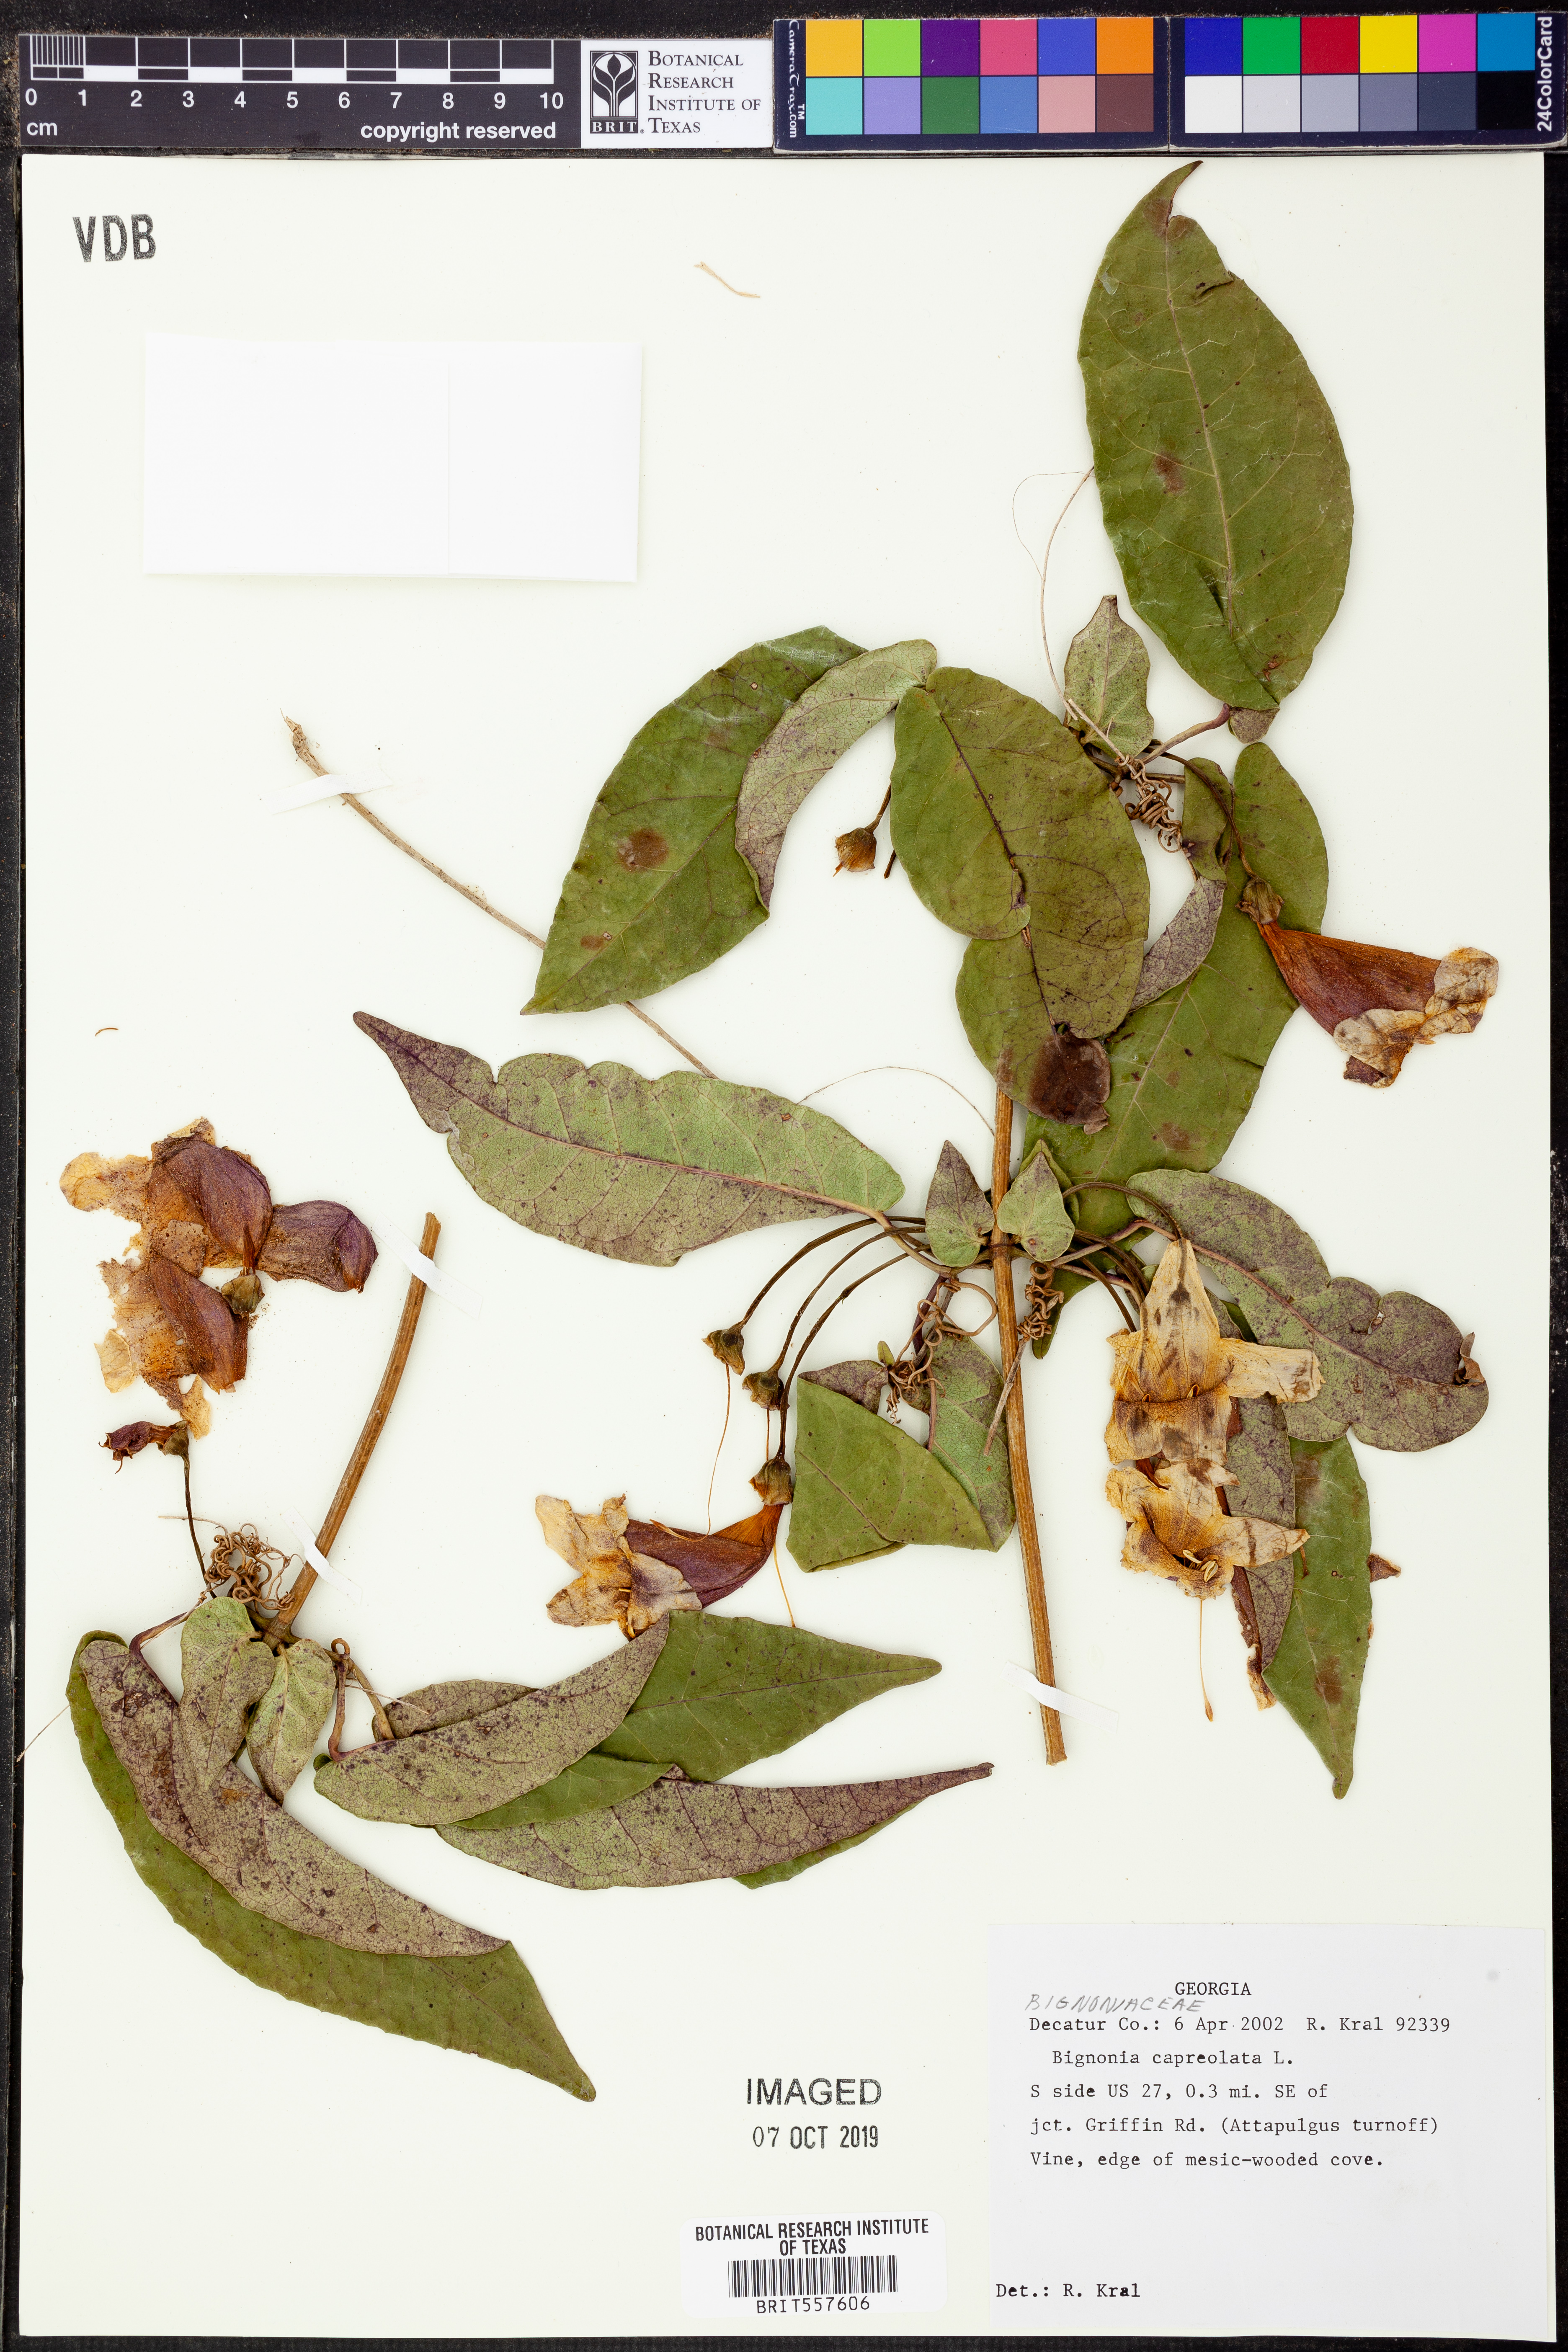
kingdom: Plantae
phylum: Tracheophyta
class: Magnoliopsida
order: Lamiales
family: Bignoniaceae
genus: Bignonia
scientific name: Bignonia capreolata
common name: Crossvine
